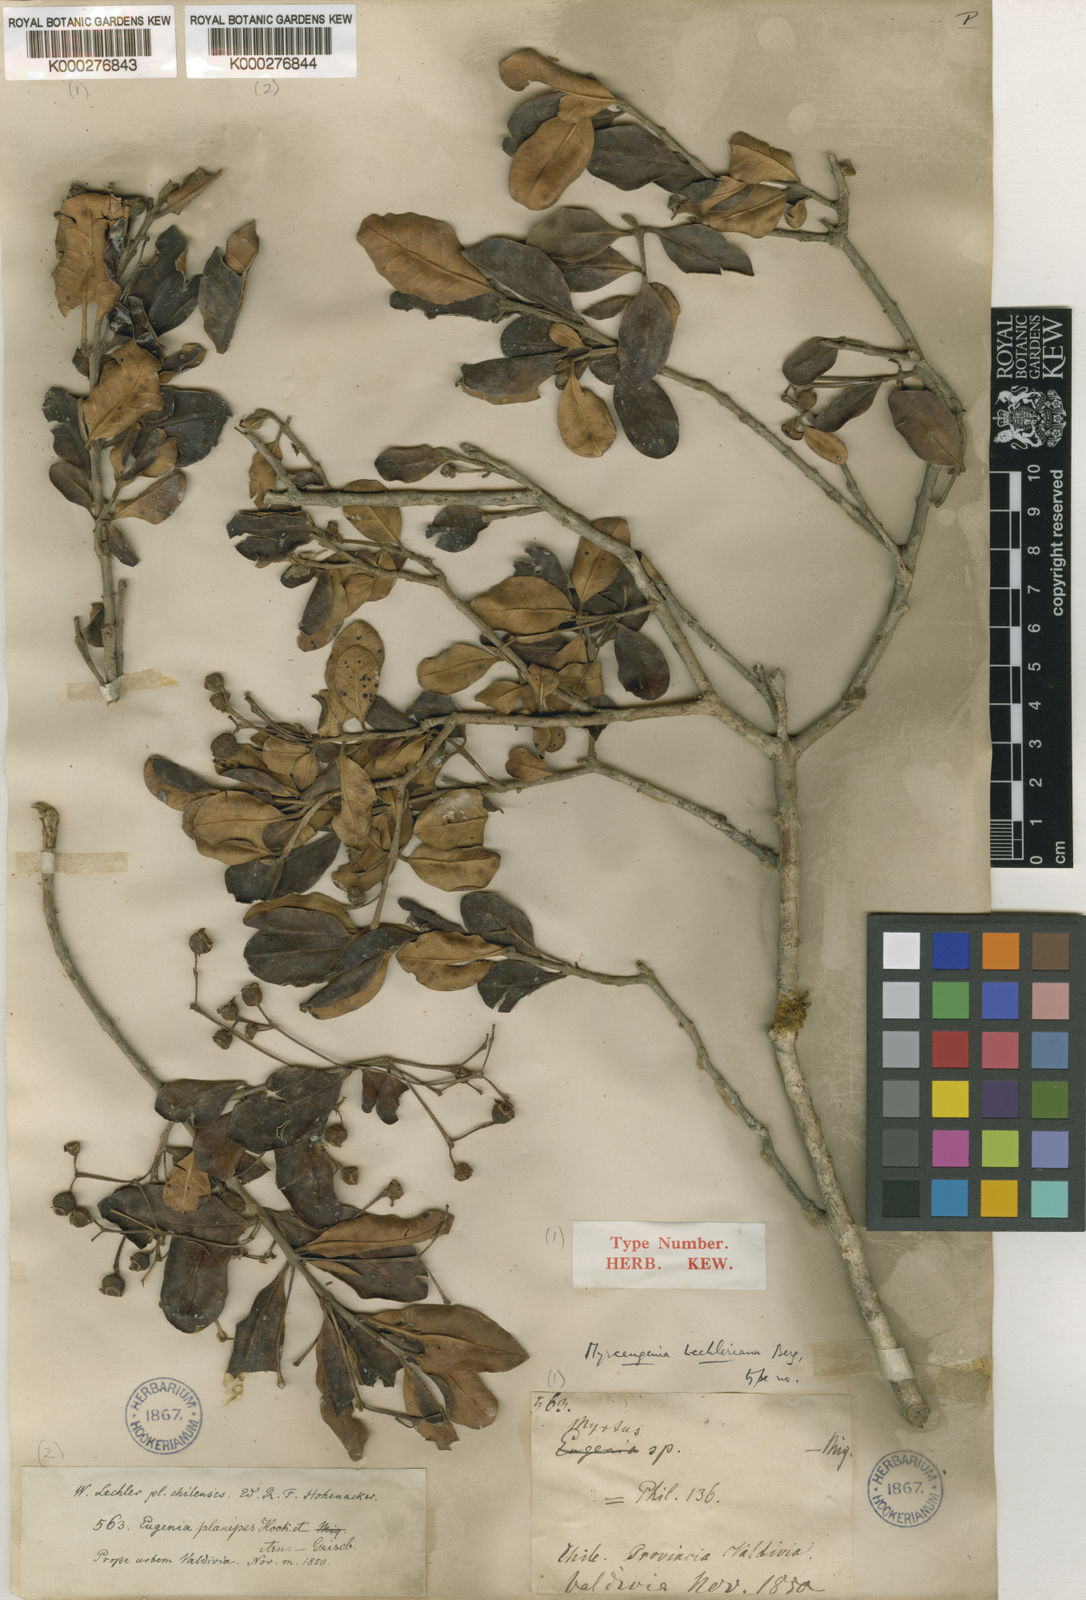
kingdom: Plantae
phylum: Tracheophyta
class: Magnoliopsida
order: Myrtales
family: Myrtaceae
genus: Myrceugenia
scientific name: Myrceugenia exsucca
